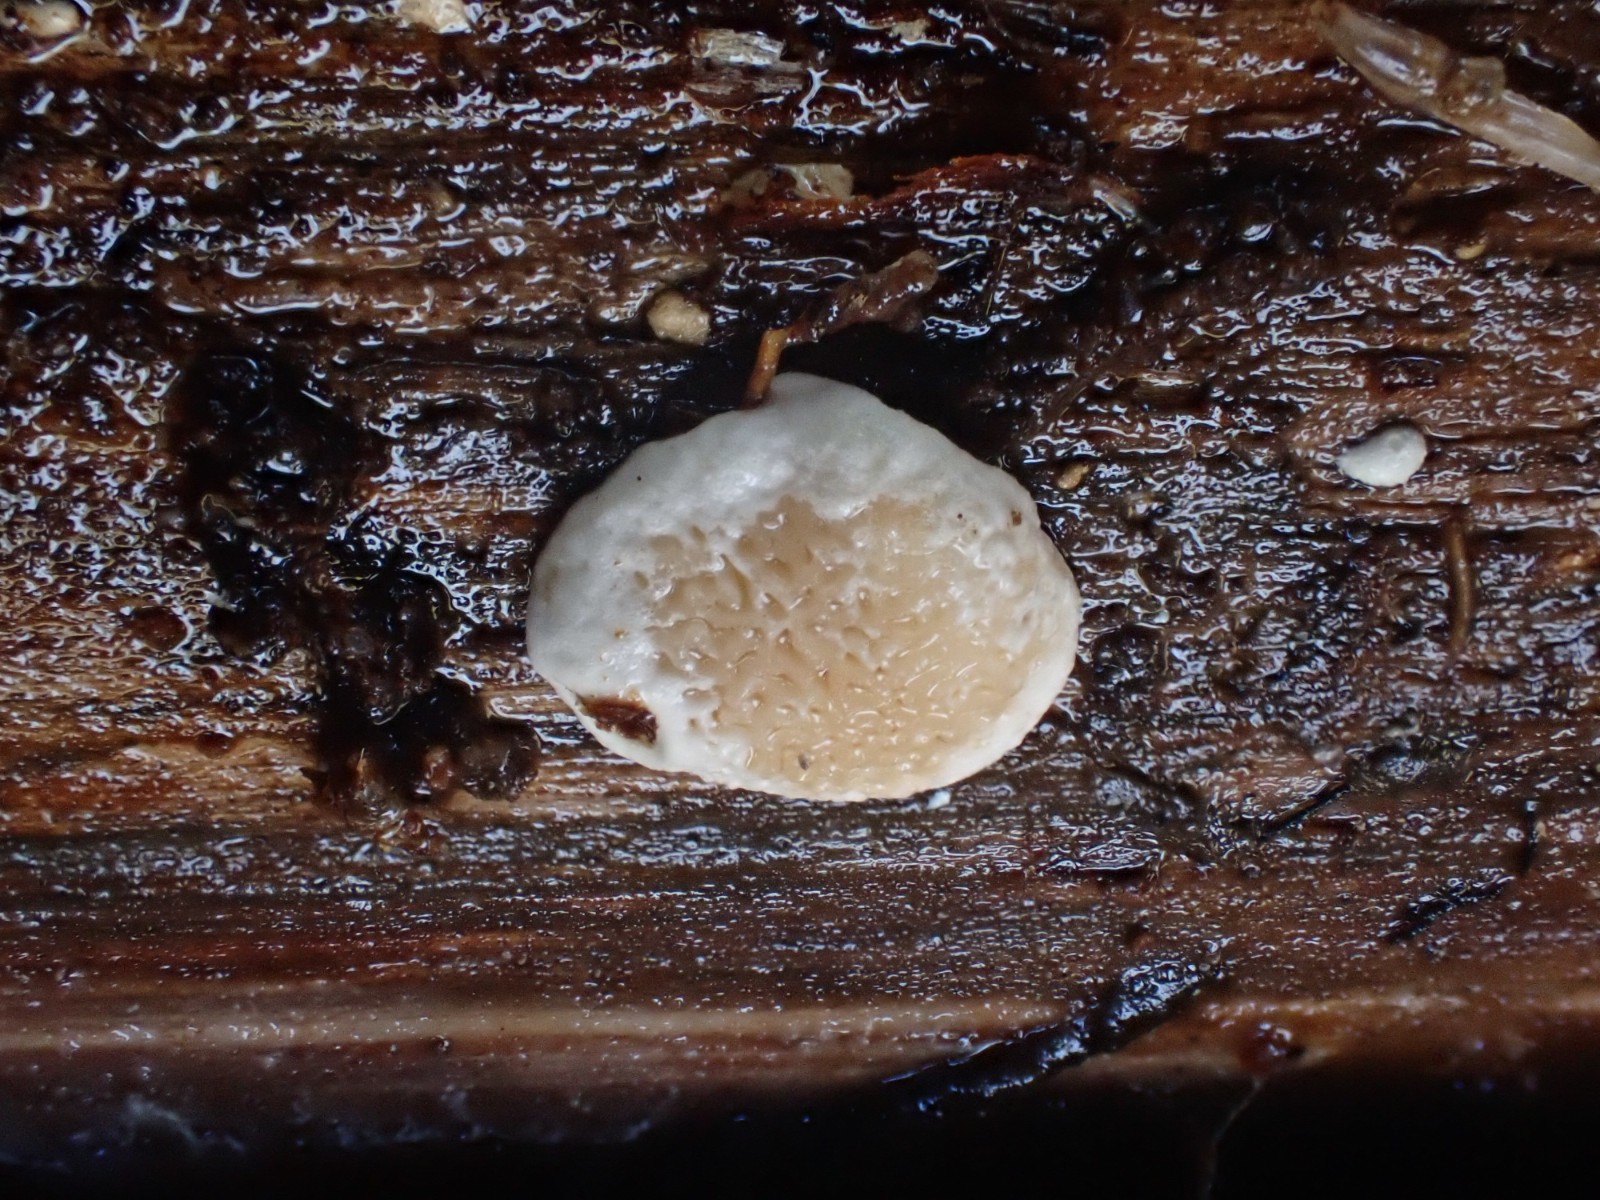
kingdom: Fungi
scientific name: Fungi
